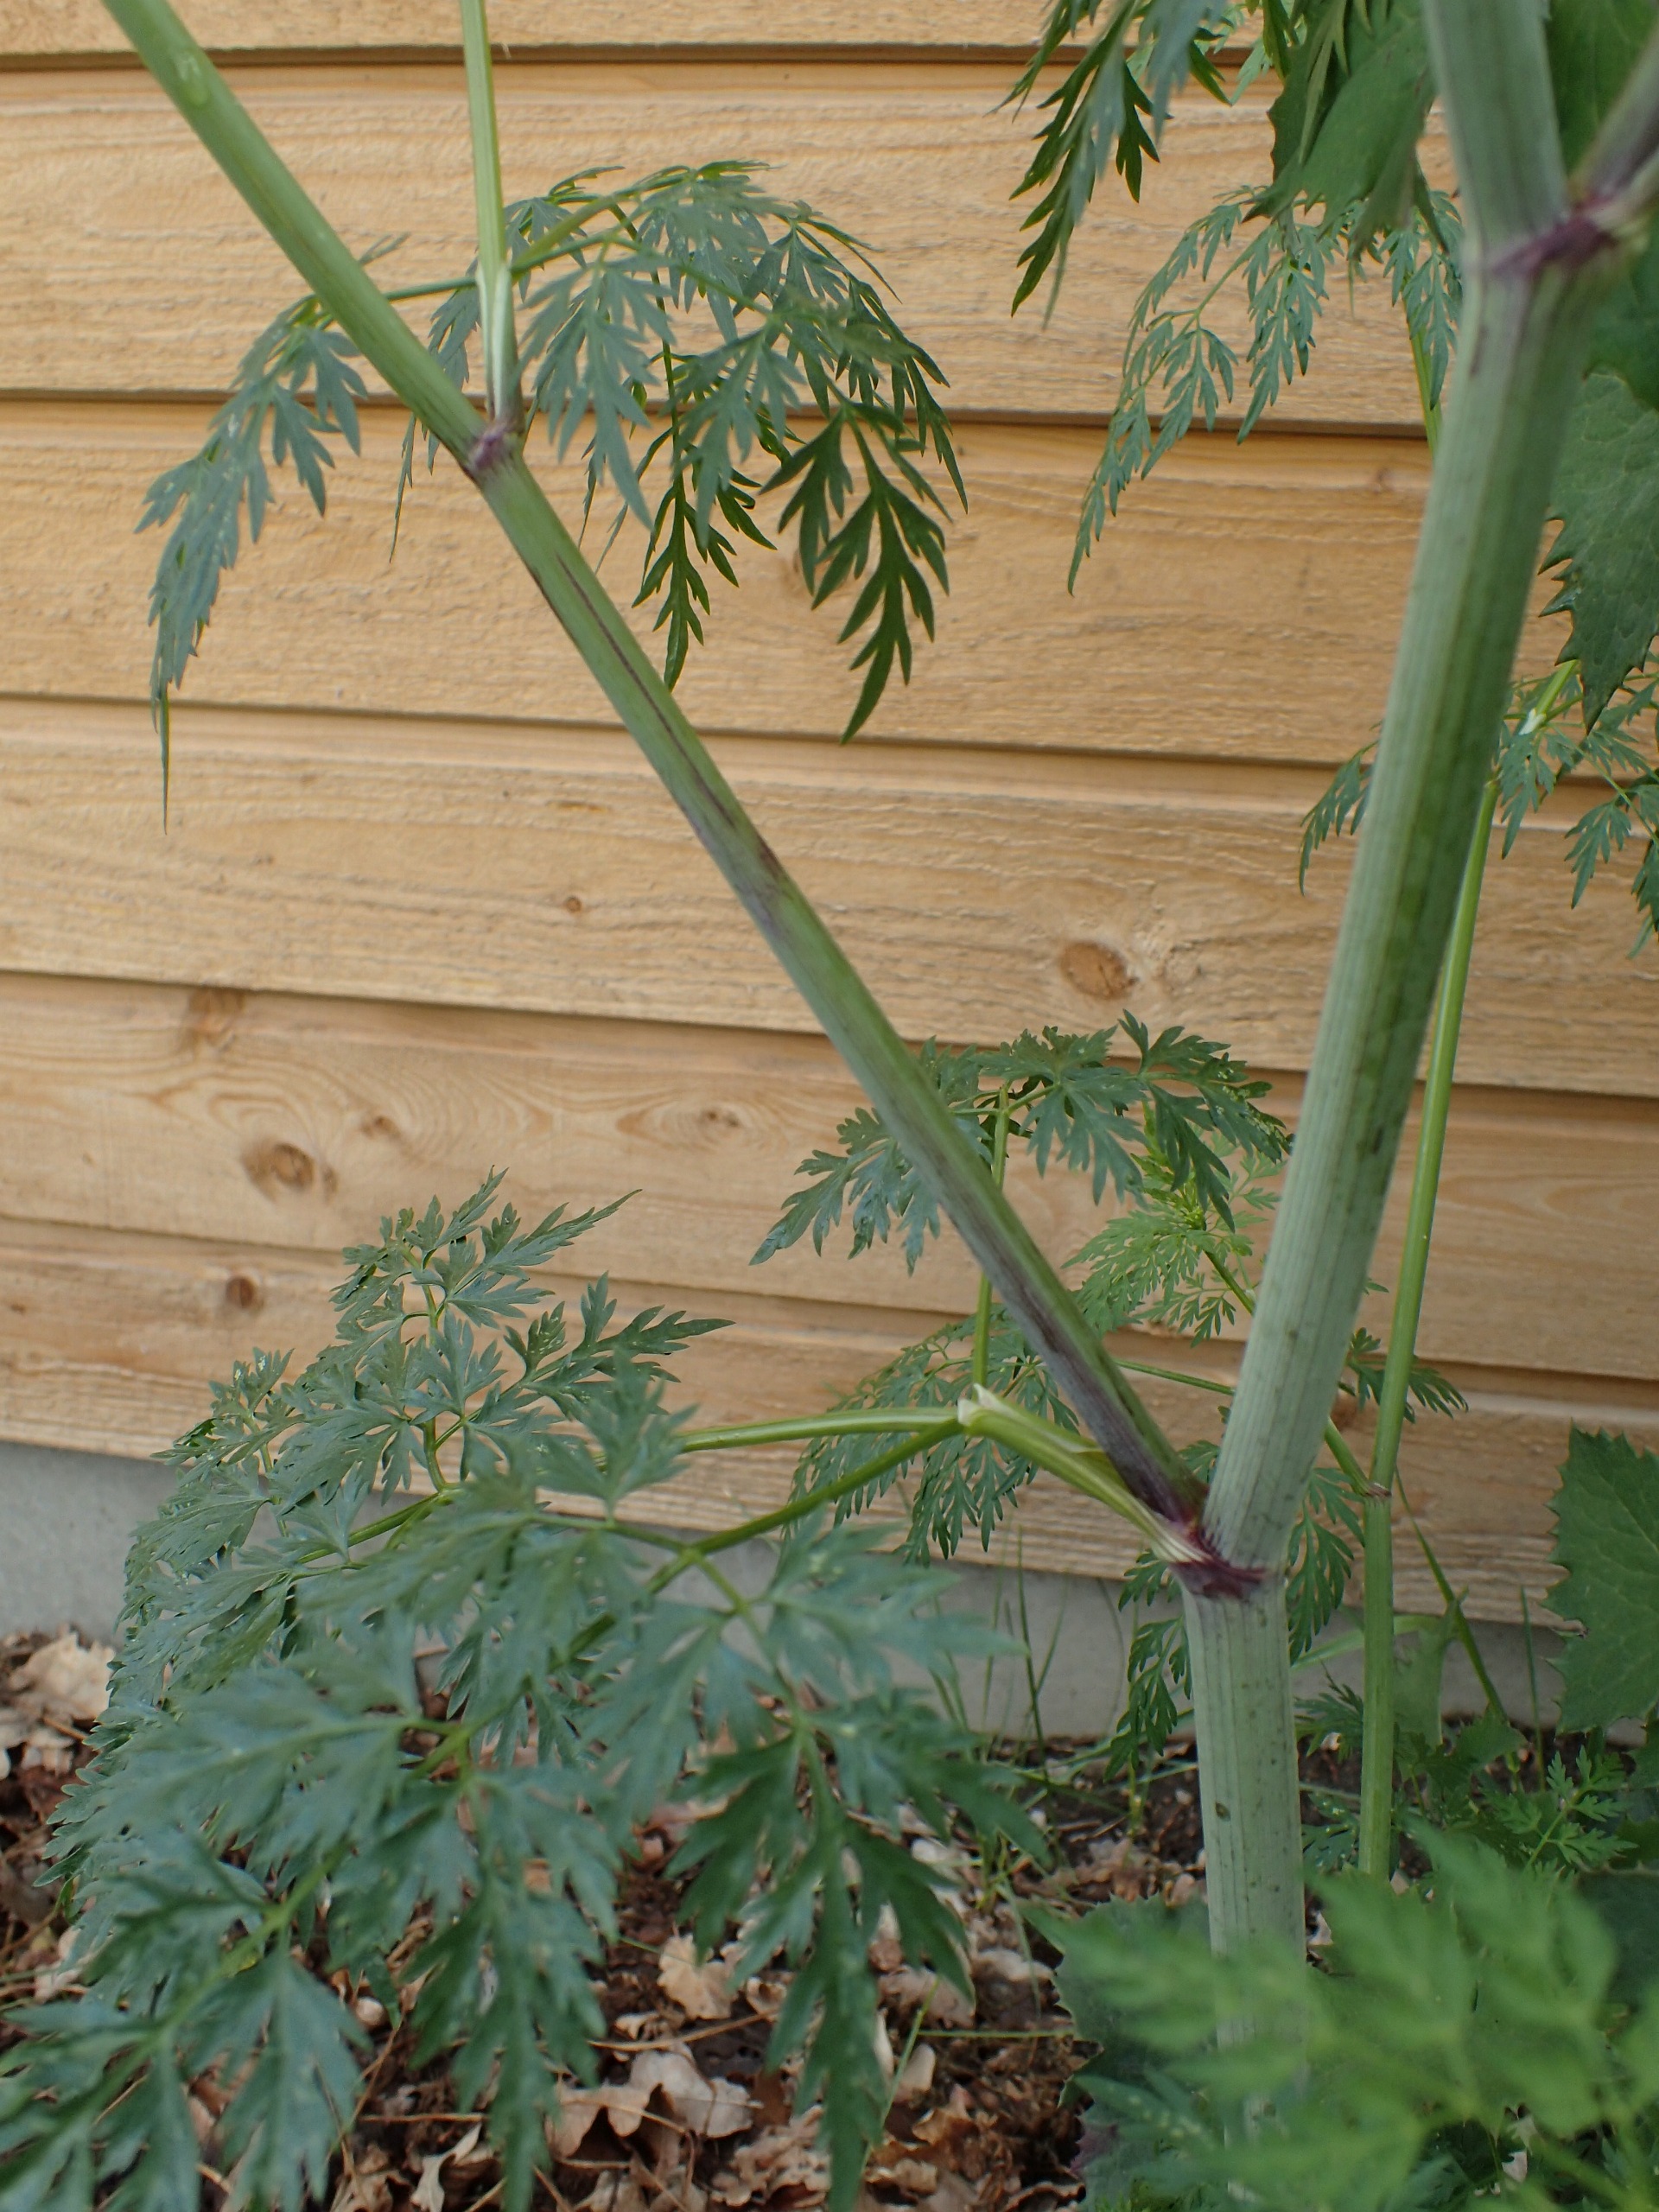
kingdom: Plantae
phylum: Tracheophyta
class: Magnoliopsida
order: Apiales
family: Apiaceae
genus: Aethusa
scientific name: Aethusa cynapium
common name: Almindelig hundepersille
